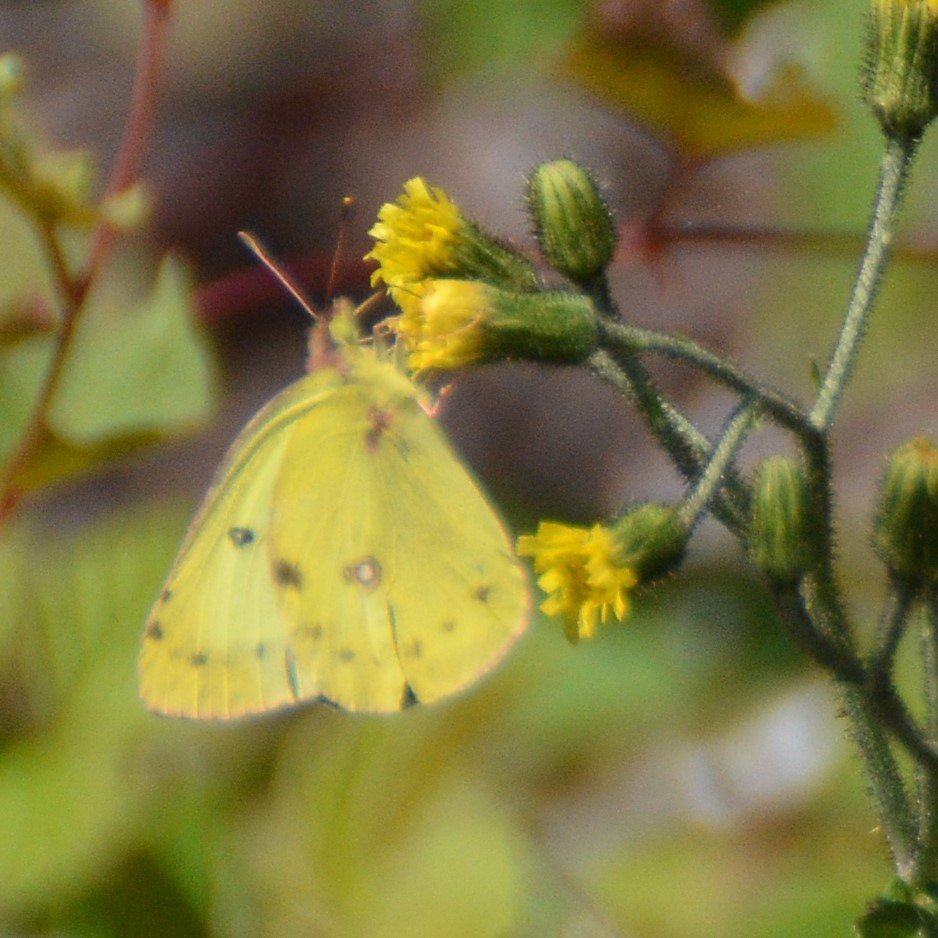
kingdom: Animalia
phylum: Arthropoda
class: Insecta
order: Lepidoptera
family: Pieridae
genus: Colias
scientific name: Colias philodice
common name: Clouded Sulphur
